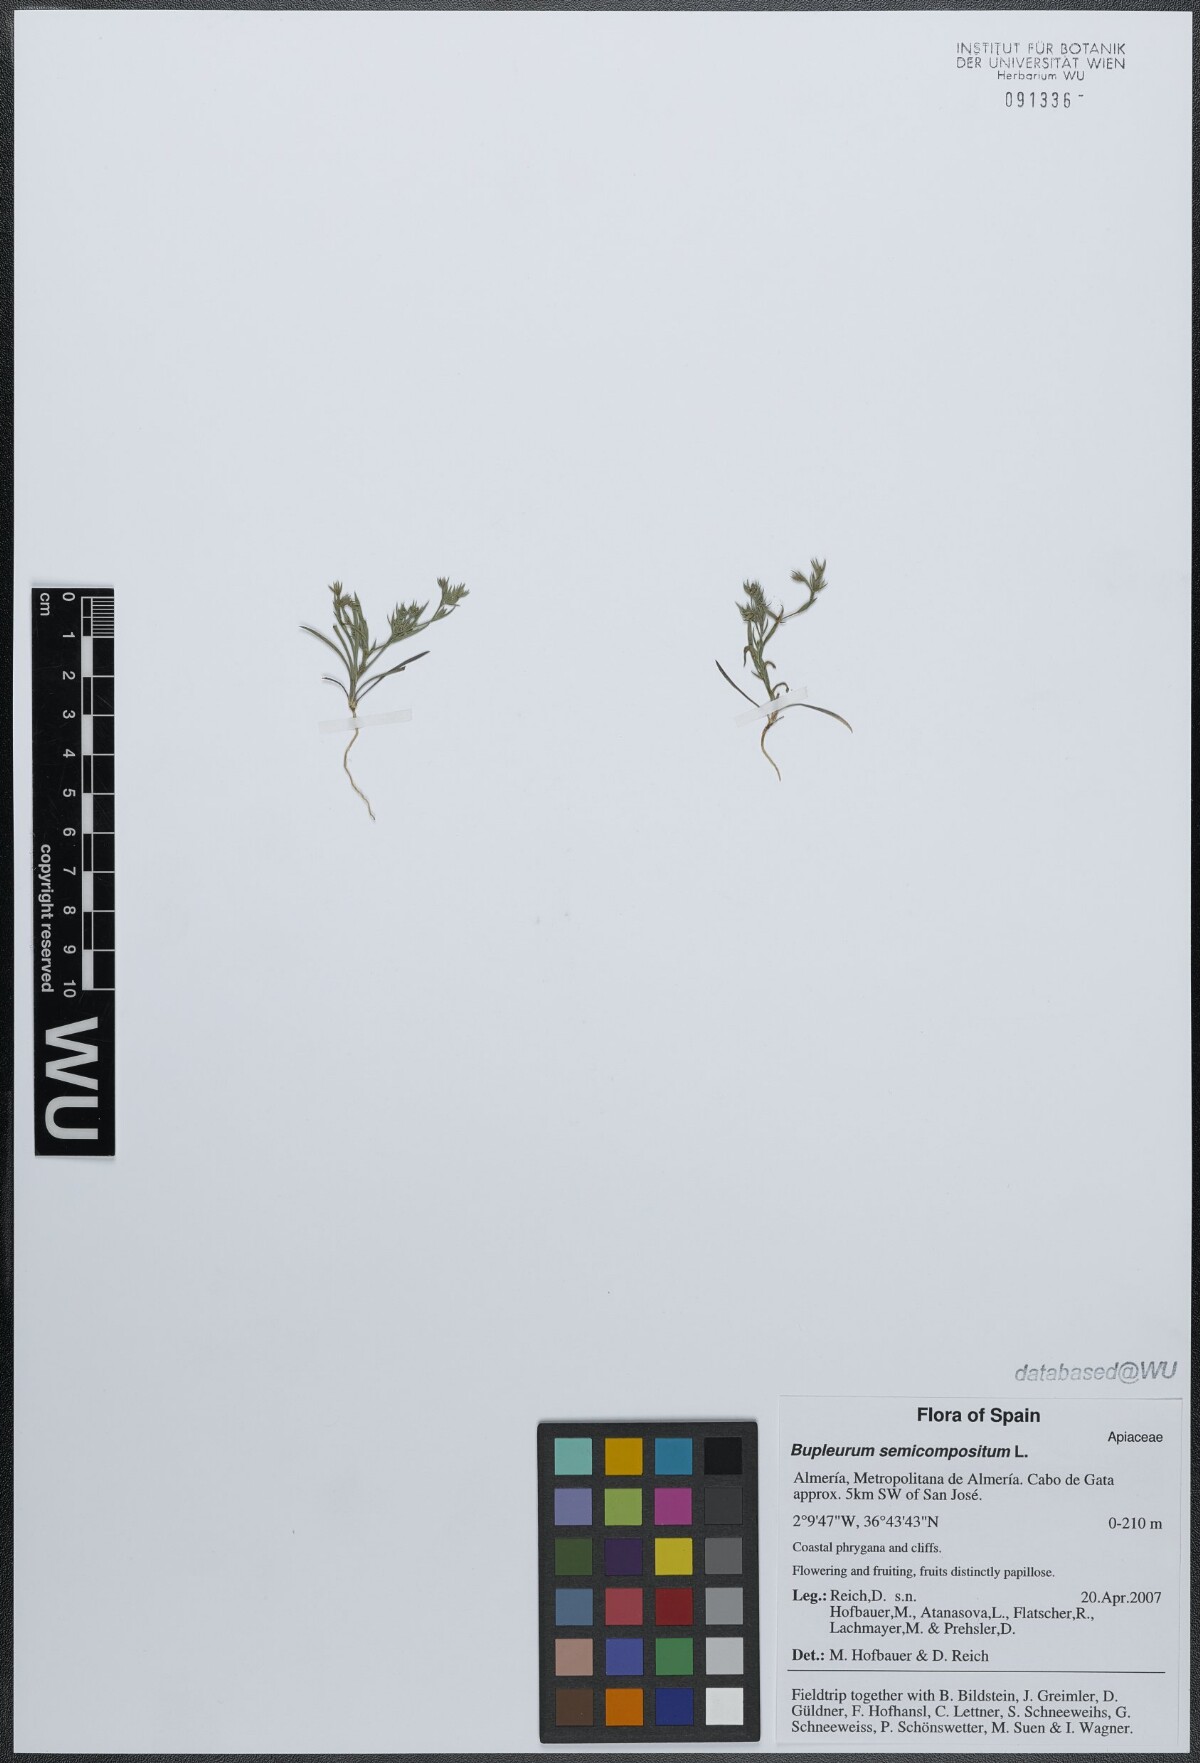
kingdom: Plantae
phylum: Tracheophyta
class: Magnoliopsida
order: Apiales
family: Apiaceae
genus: Bupleurum
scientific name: Bupleurum semicompositum
